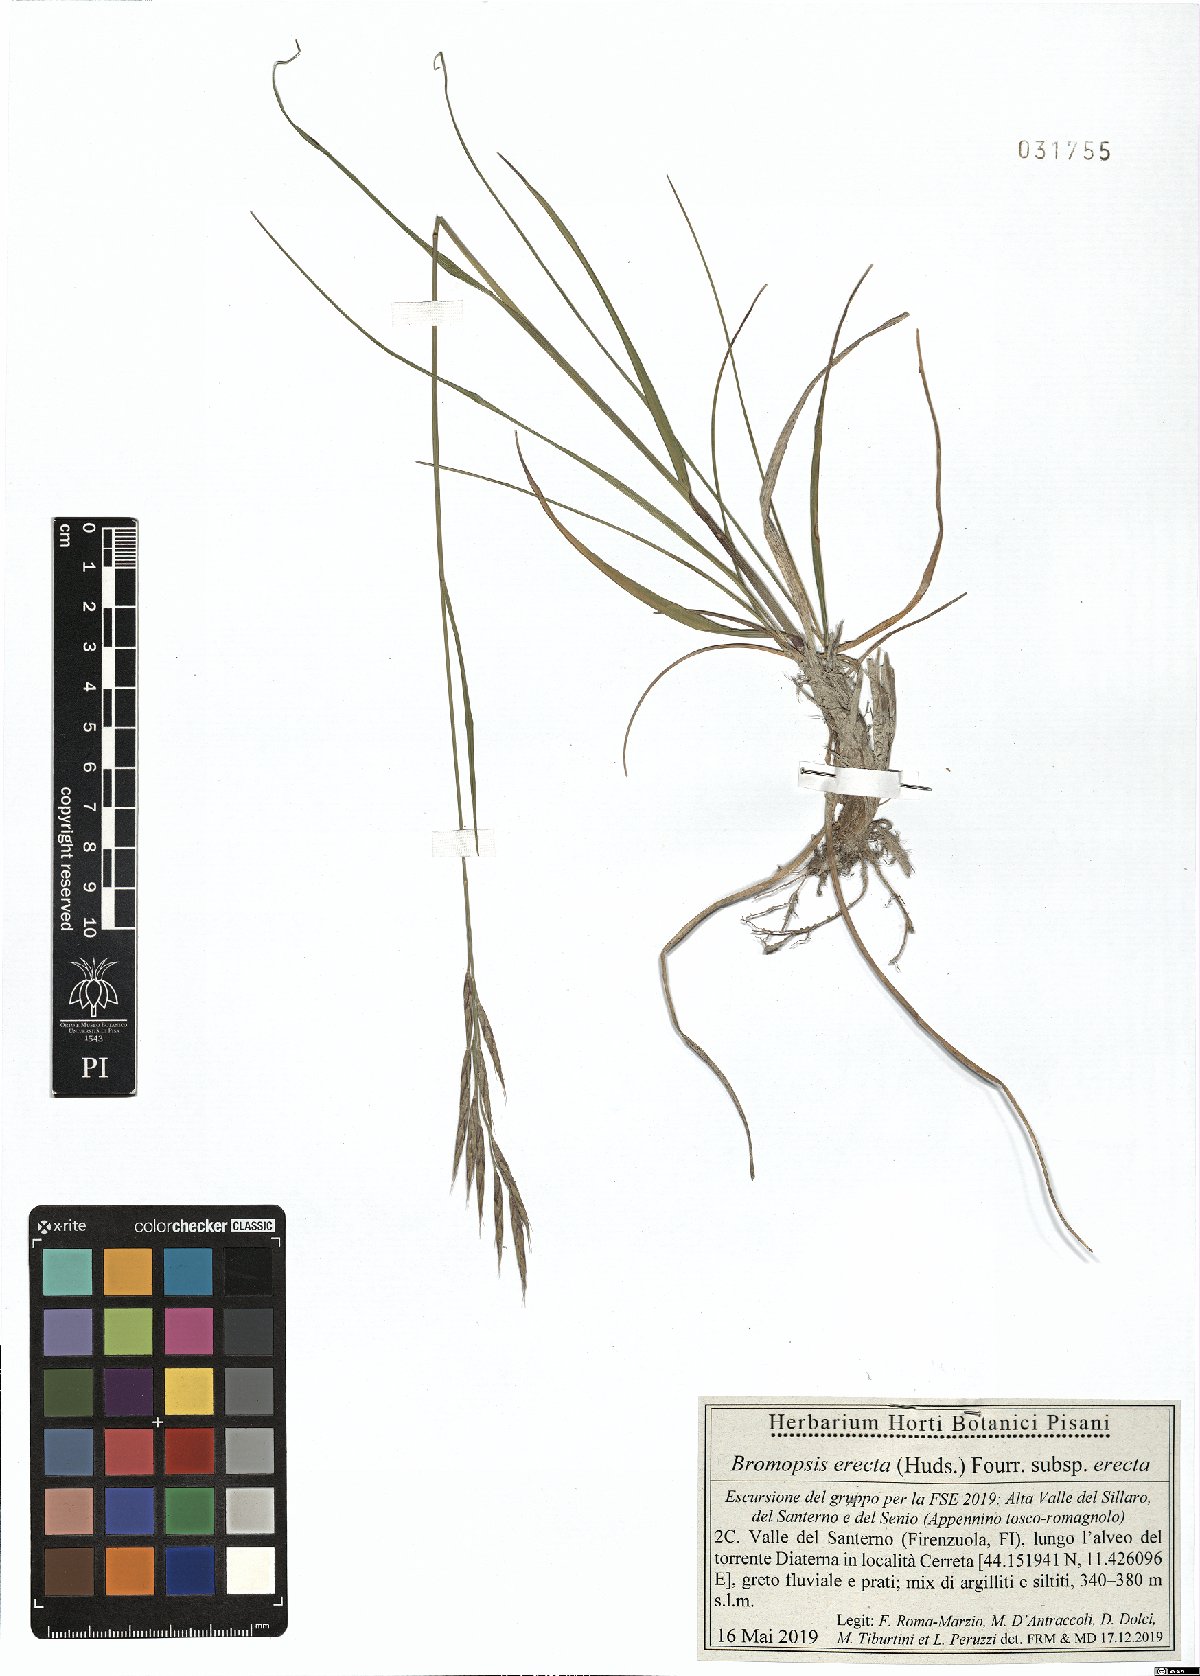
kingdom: Plantae
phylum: Tracheophyta
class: Liliopsida
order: Poales
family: Poaceae
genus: Bromus
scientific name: Bromus erectus
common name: Erect brome
